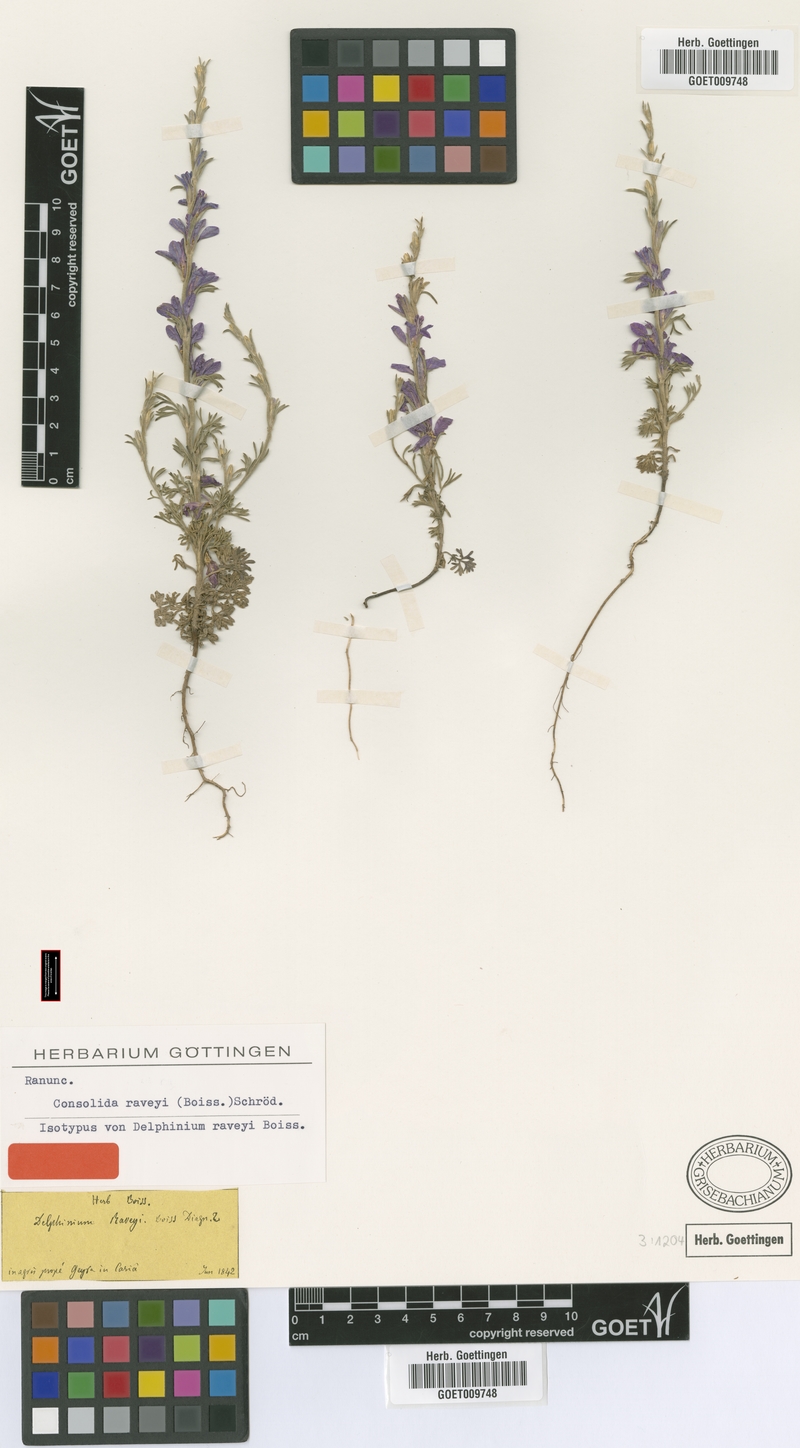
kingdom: Plantae
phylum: Tracheophyta
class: Magnoliopsida
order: Ranunculales
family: Ranunculaceae
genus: Delphinium
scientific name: Delphinium raveyi
